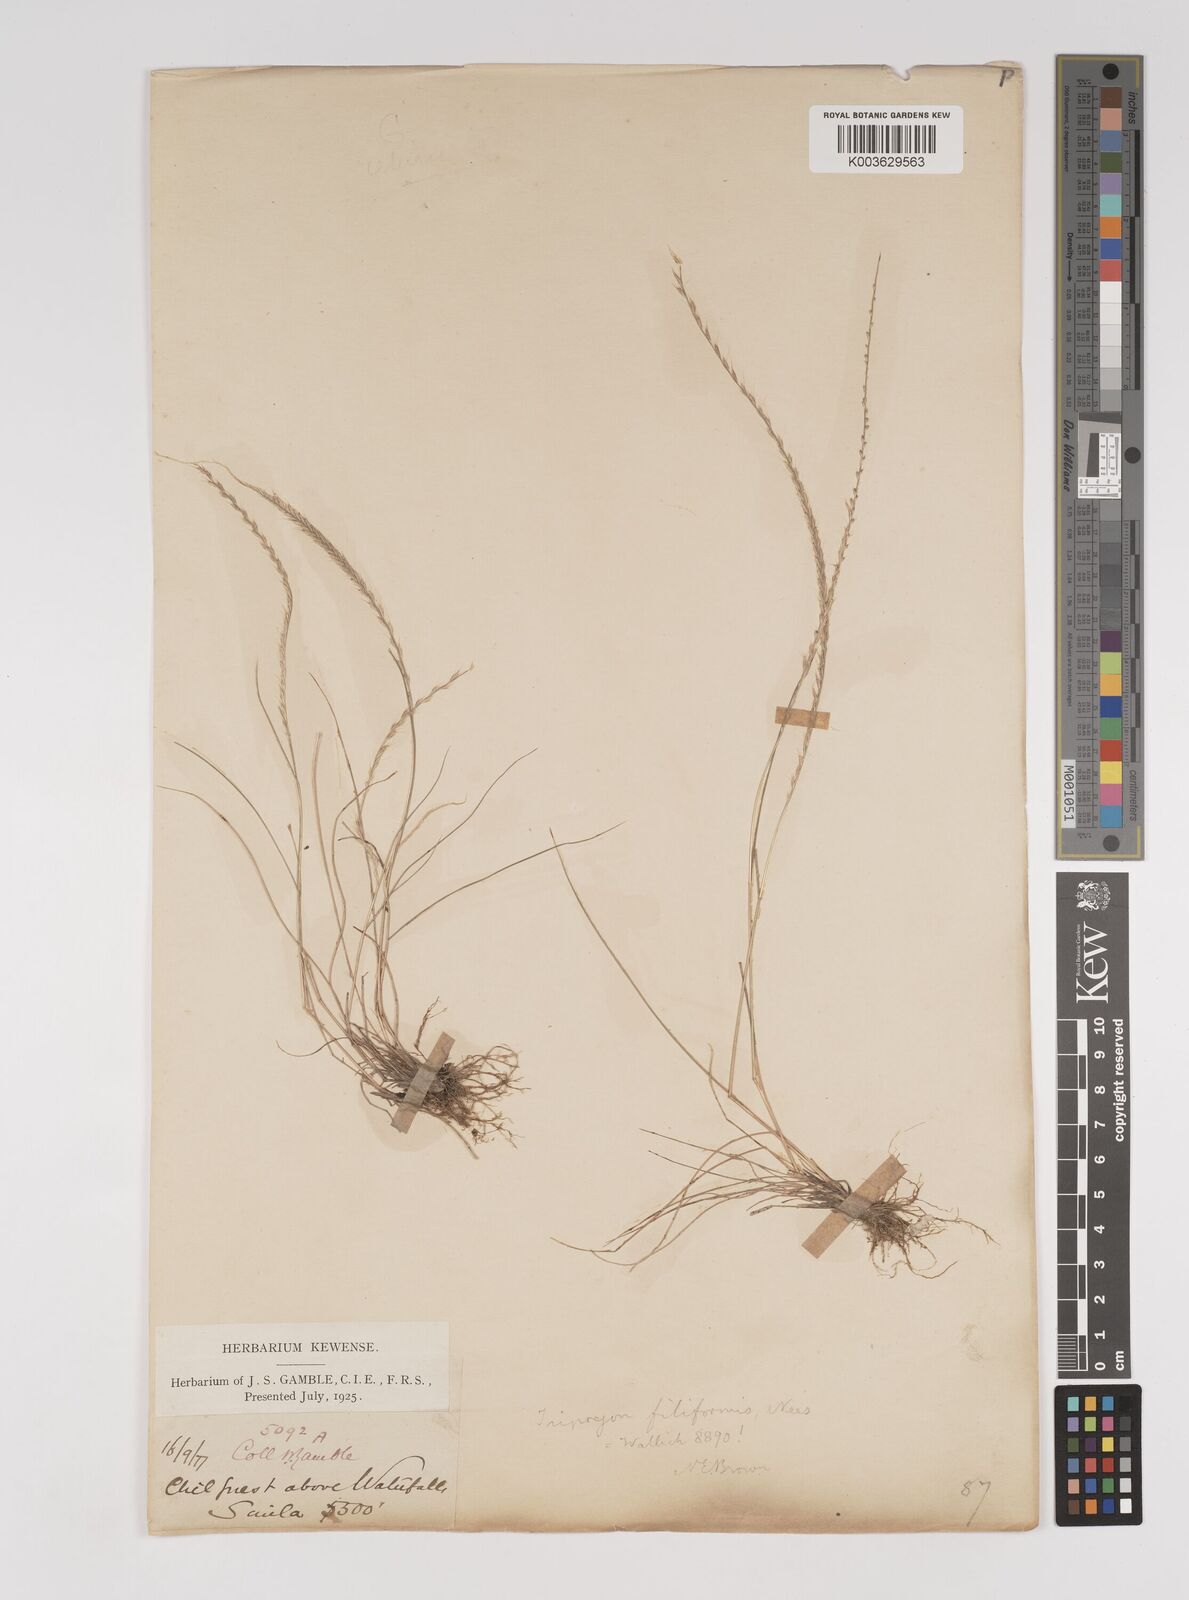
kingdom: Plantae
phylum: Tracheophyta
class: Liliopsida
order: Poales
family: Poaceae
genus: Tripogon
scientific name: Tripogon filiformis
